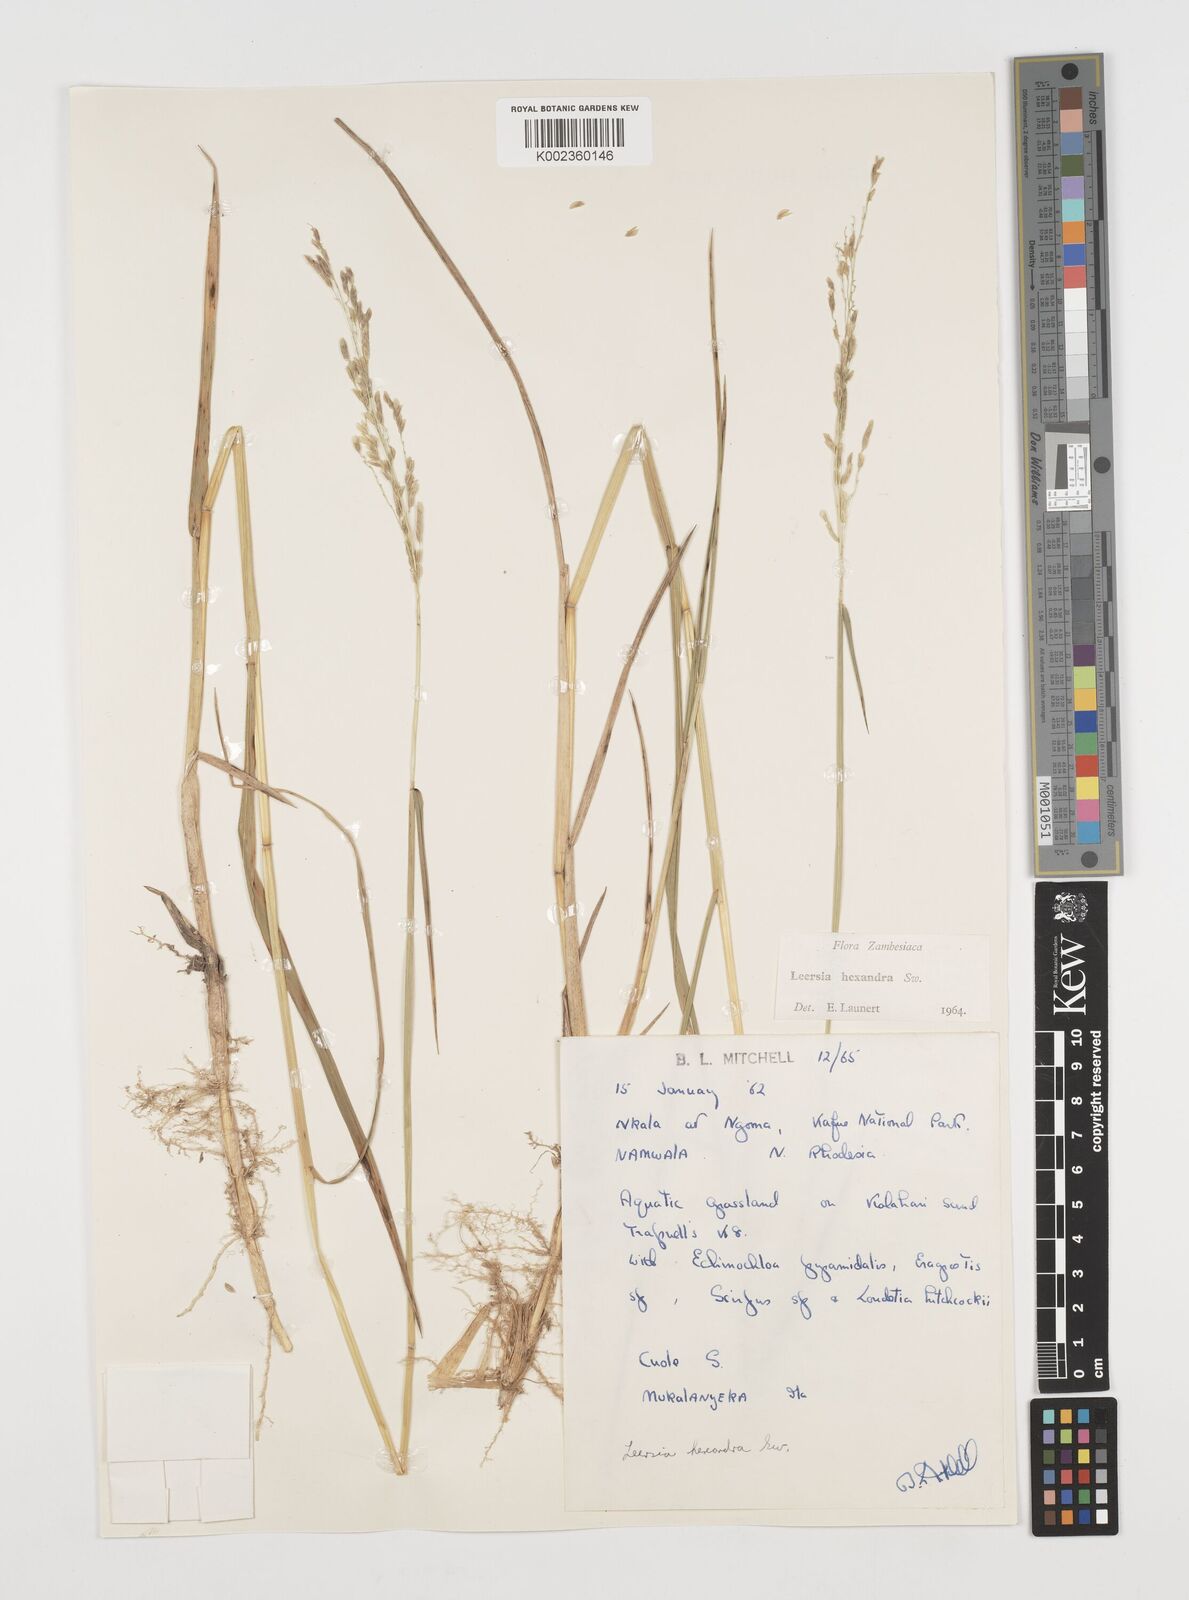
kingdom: Plantae
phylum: Tracheophyta
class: Liliopsida
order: Poales
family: Poaceae
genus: Leersia
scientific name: Leersia hexandra
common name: Southern cut grass
